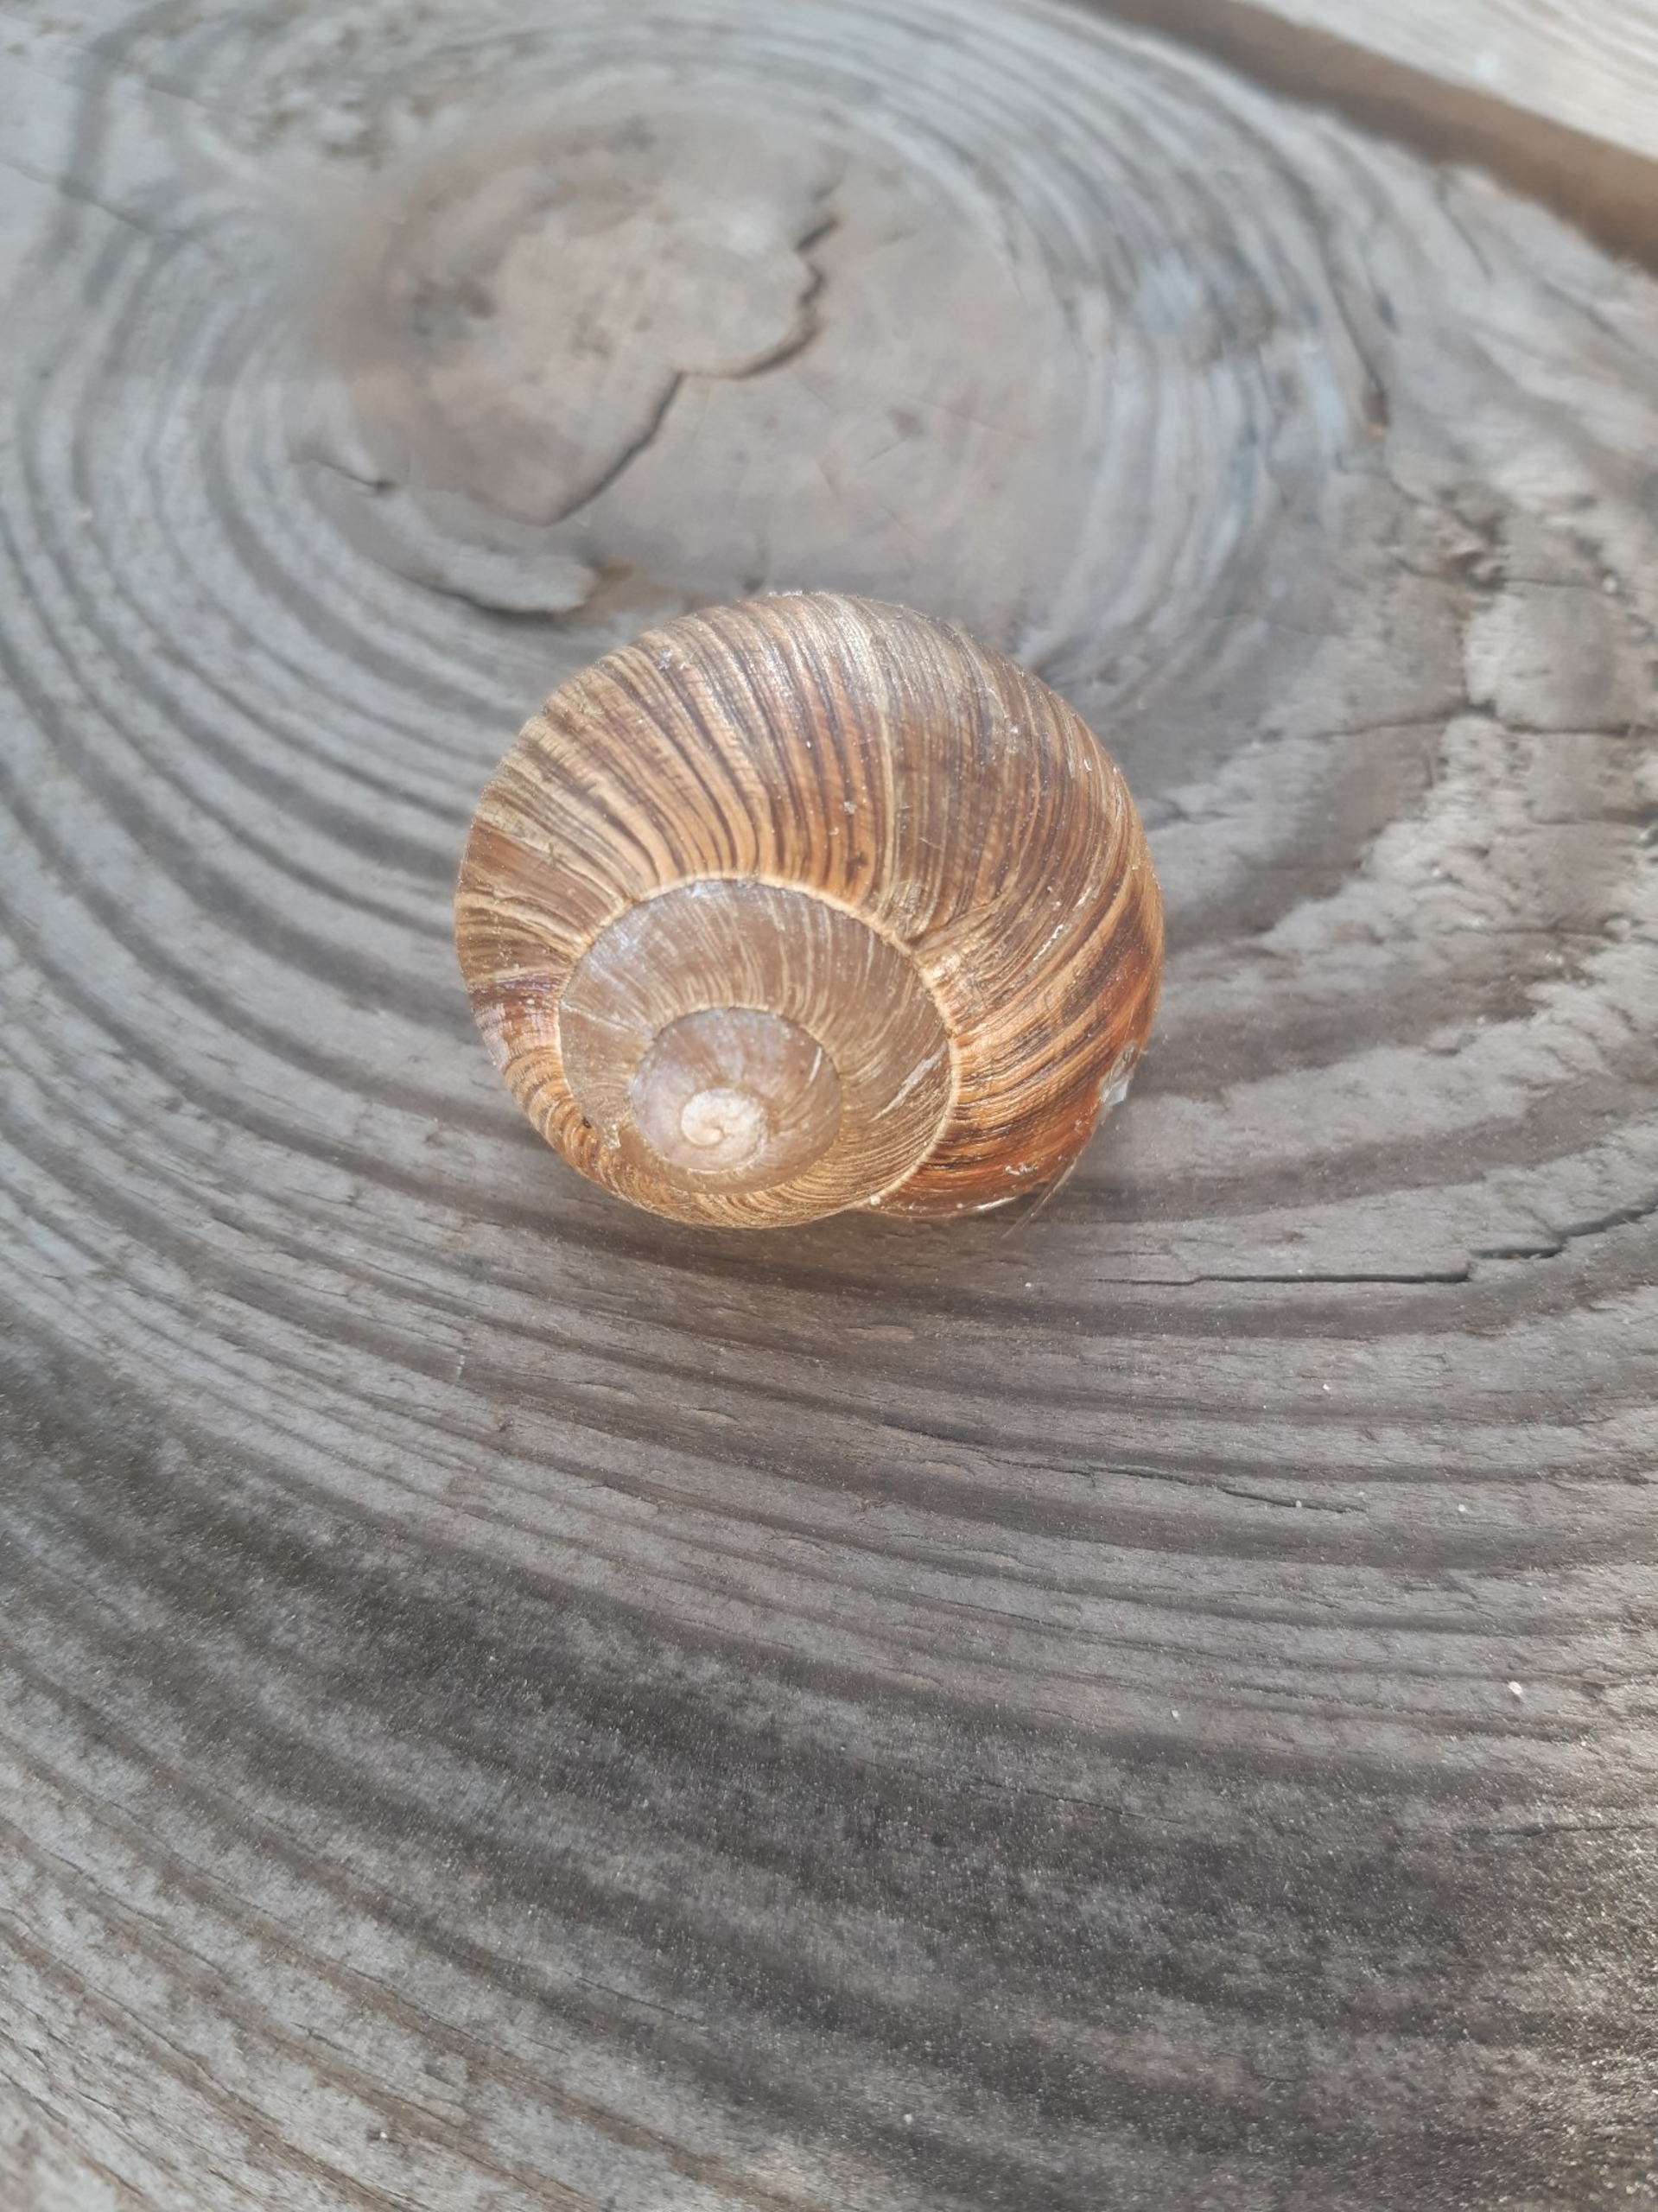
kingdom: Animalia
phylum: Mollusca
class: Gastropoda
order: Stylommatophora
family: Helicidae
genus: Helix
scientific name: Helix pomatia
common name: Vinbjergsnegl
